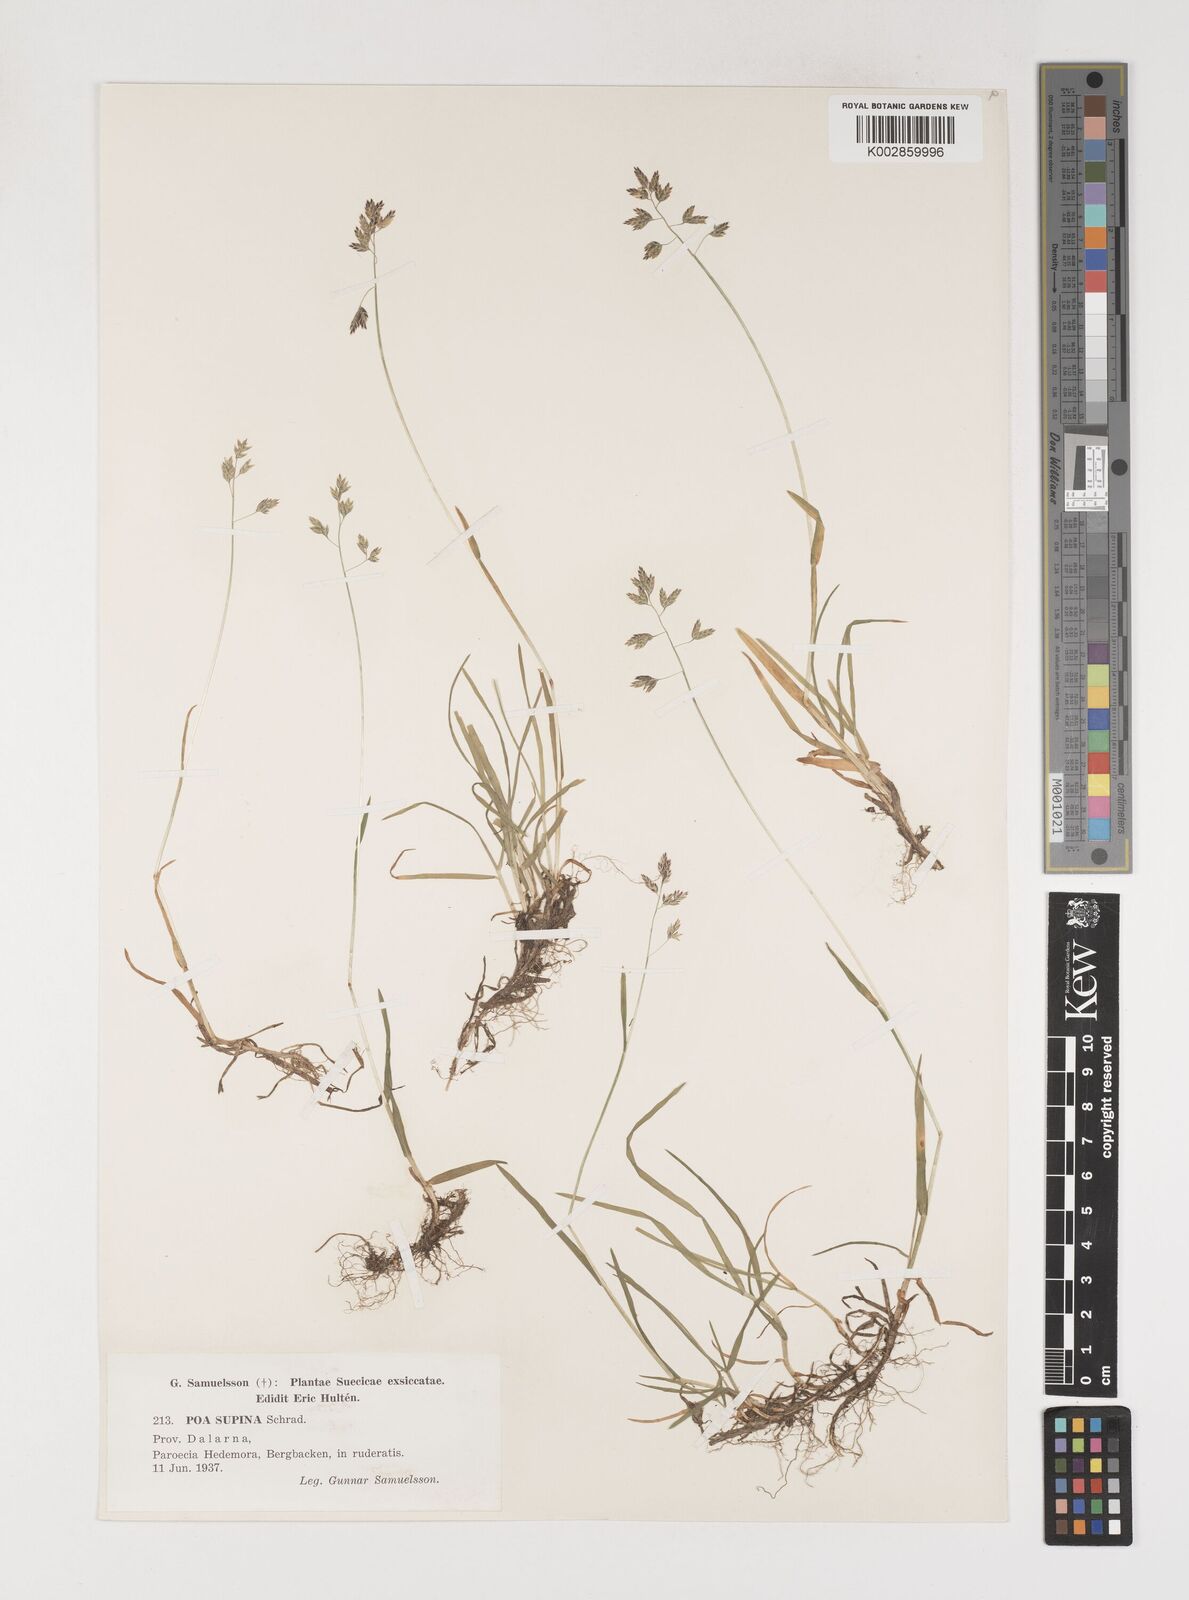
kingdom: Plantae
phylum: Tracheophyta
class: Liliopsida
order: Poales
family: Poaceae
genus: Poa
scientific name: Poa supina
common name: Supina bluegrass
